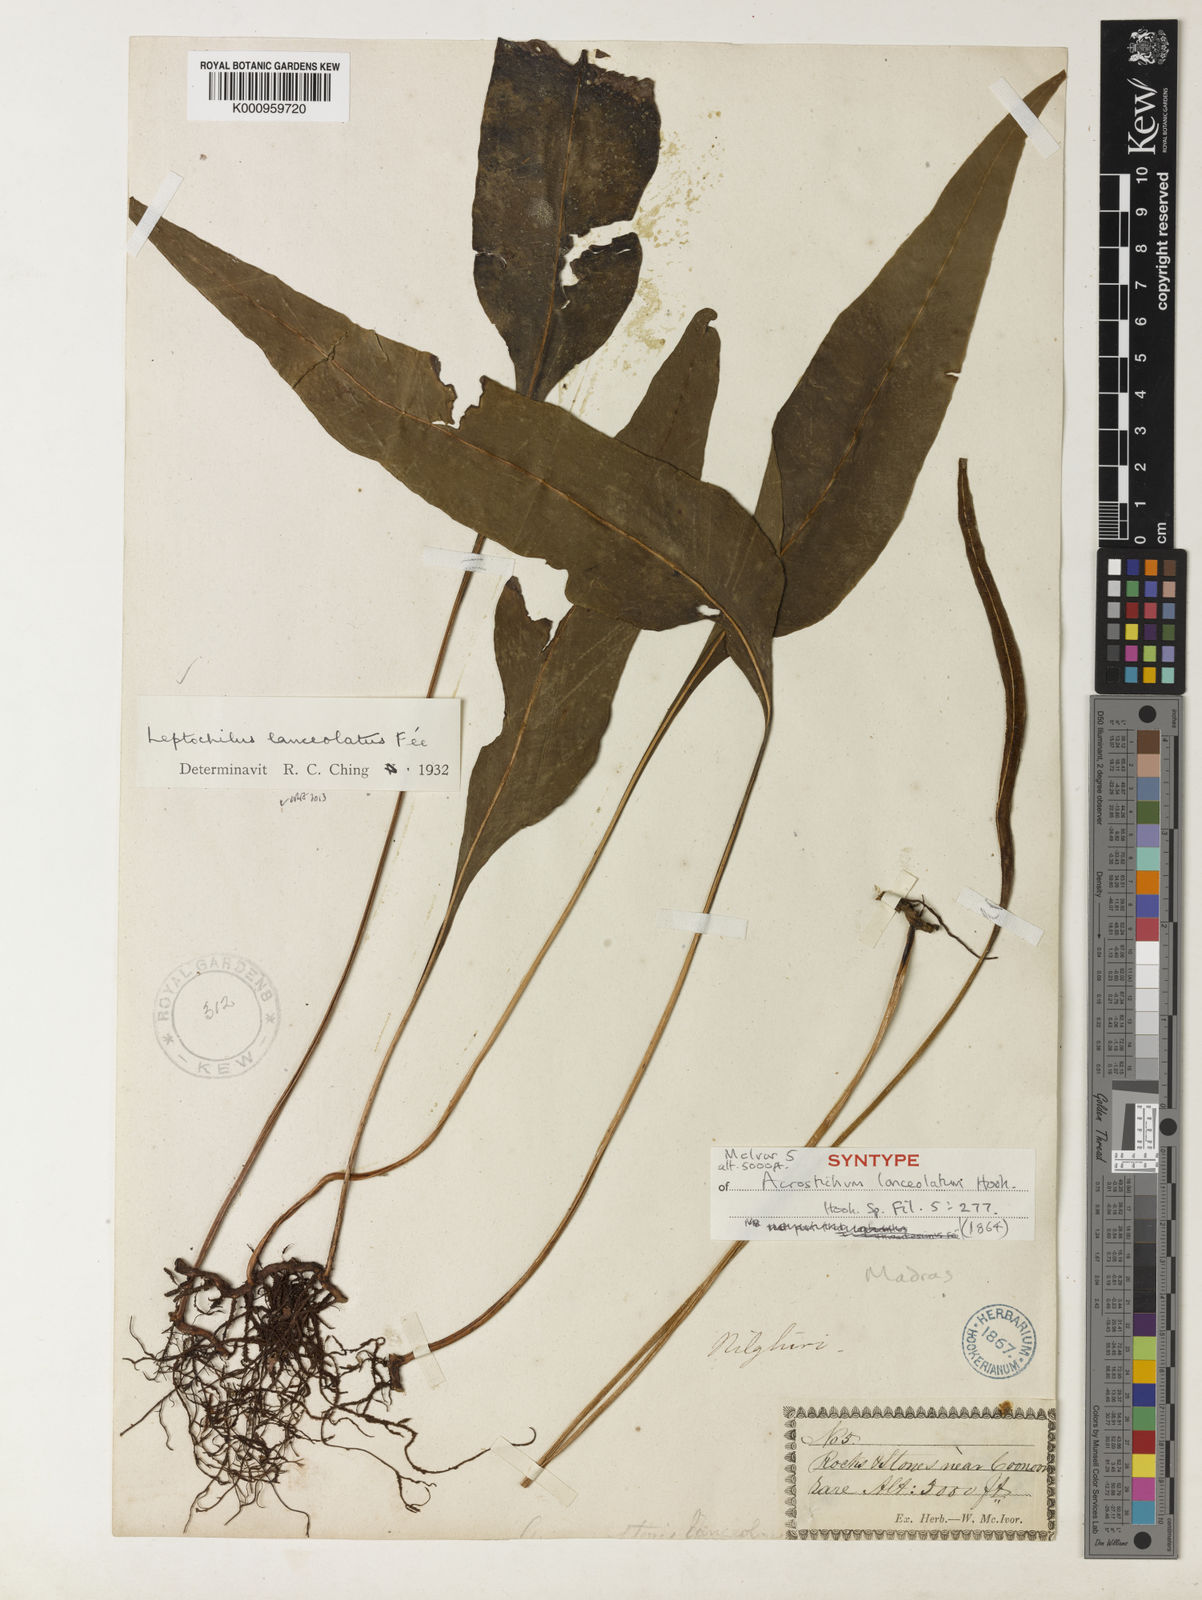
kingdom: Plantae
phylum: Tracheophyta
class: Polypodiopsida
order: Polypodiales
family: Polypodiaceae
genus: Leptochilus
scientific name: Leptochilus decurrens
